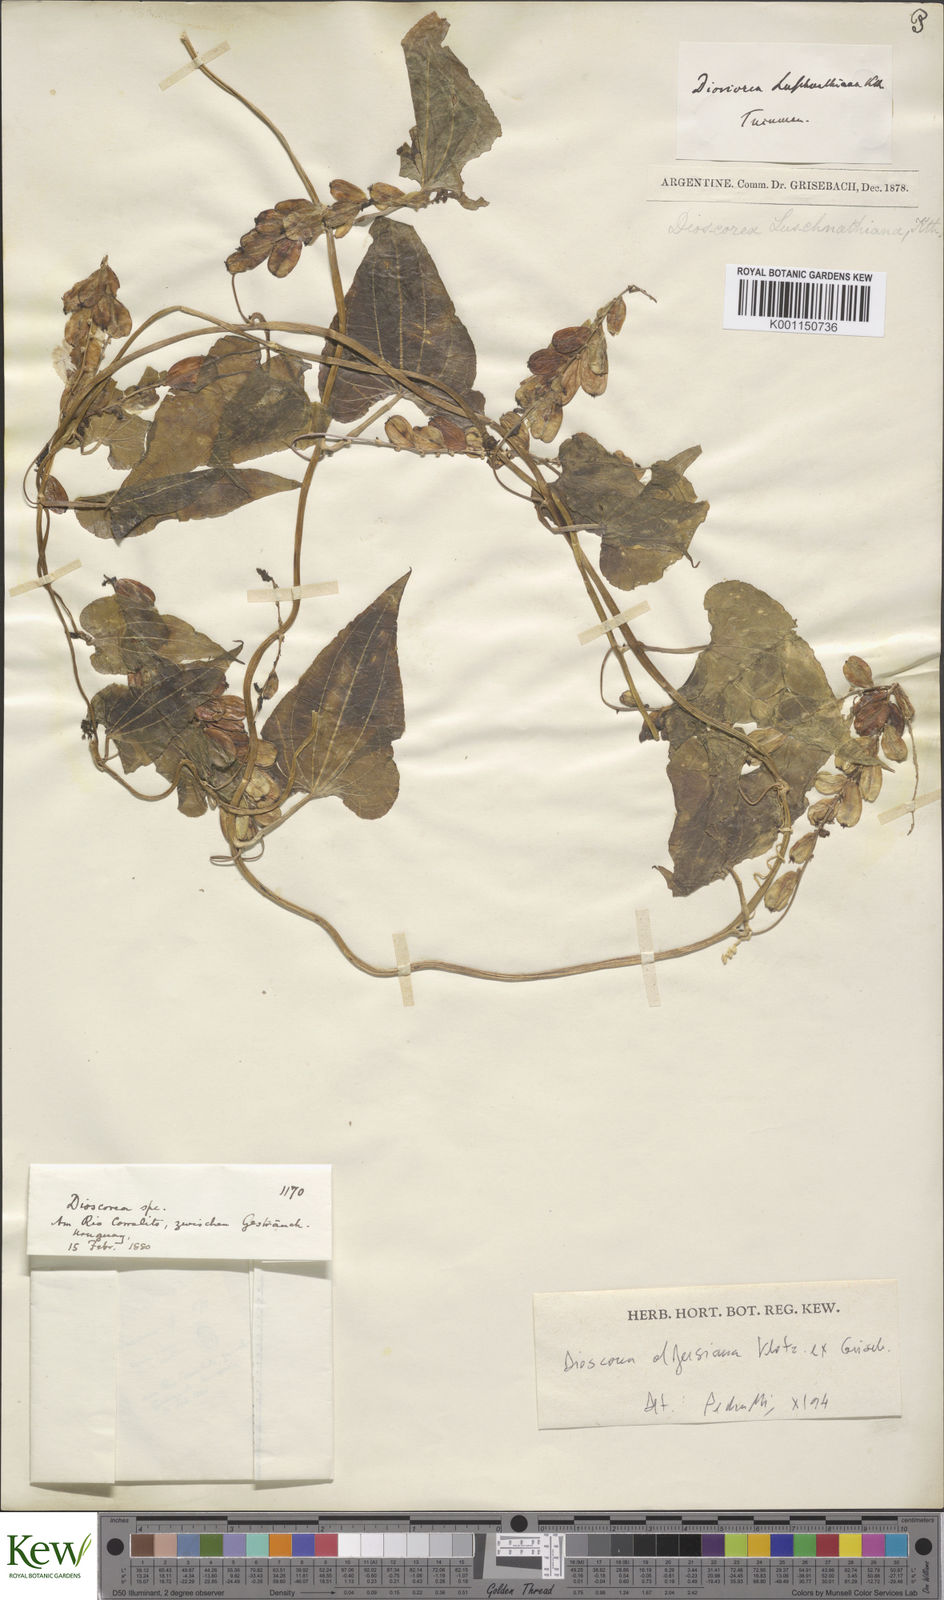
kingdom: Plantae
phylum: Tracheophyta
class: Liliopsida
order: Dioscoreales
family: Dioscoreaceae
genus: Dioscorea
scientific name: Dioscorea pohlii
